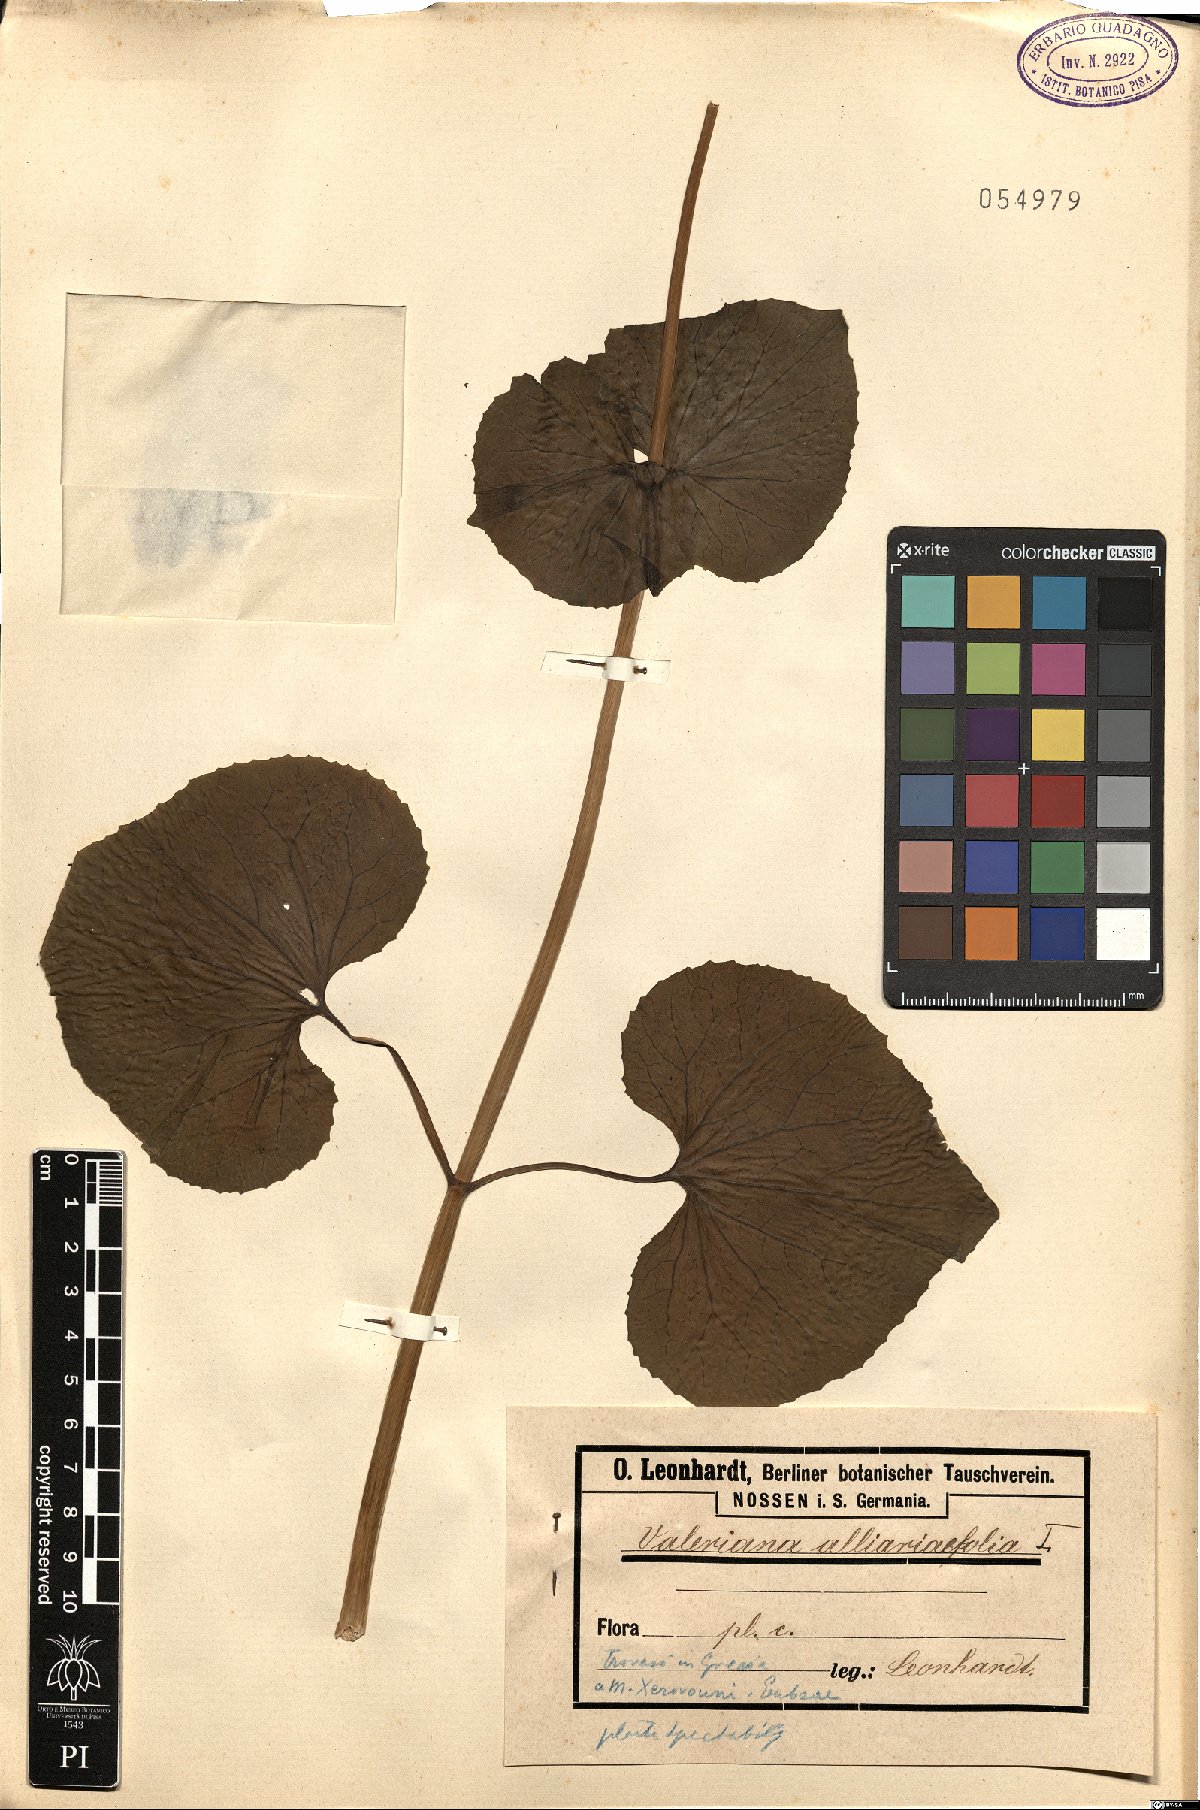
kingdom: Plantae
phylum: Tracheophyta
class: Magnoliopsida
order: Dipsacales
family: Caprifoliaceae
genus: Valeriana
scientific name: Valeriana alliariifolia
